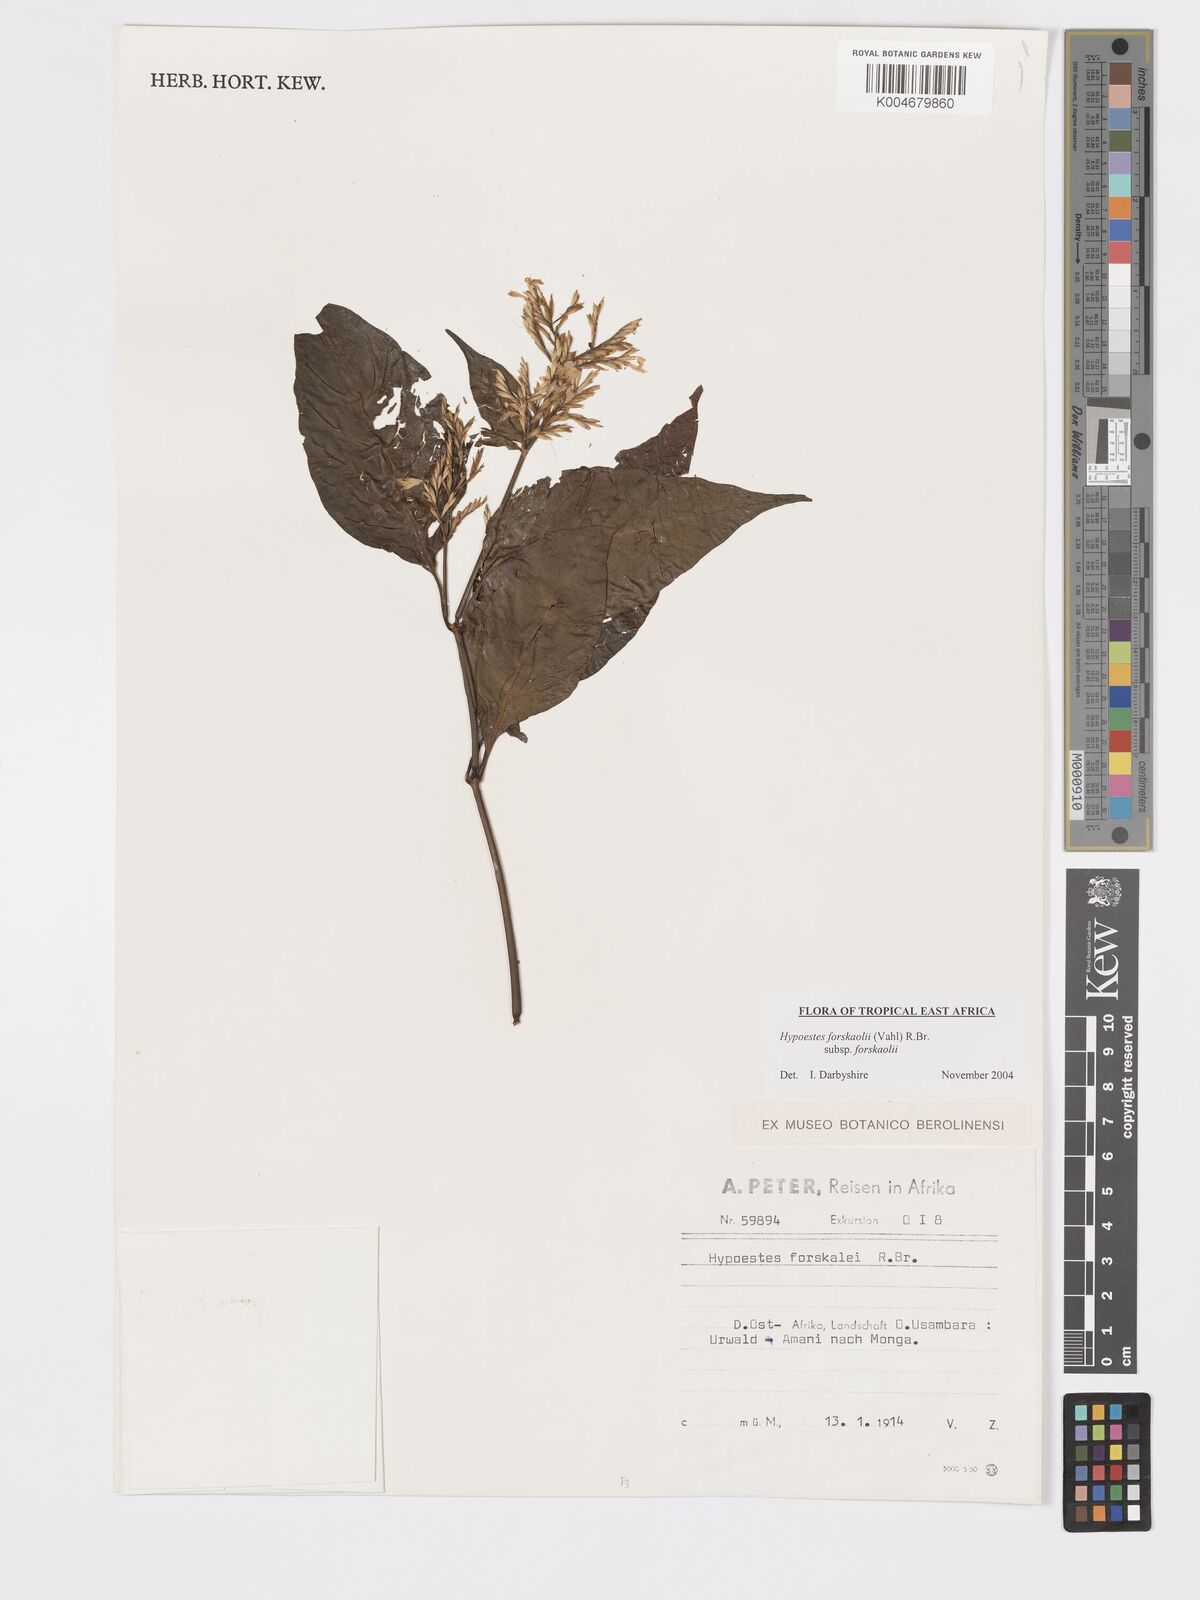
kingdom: Plantae
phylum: Tracheophyta
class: Magnoliopsida
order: Lamiales
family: Acanthaceae
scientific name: Acanthaceae
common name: Acanthaceae
